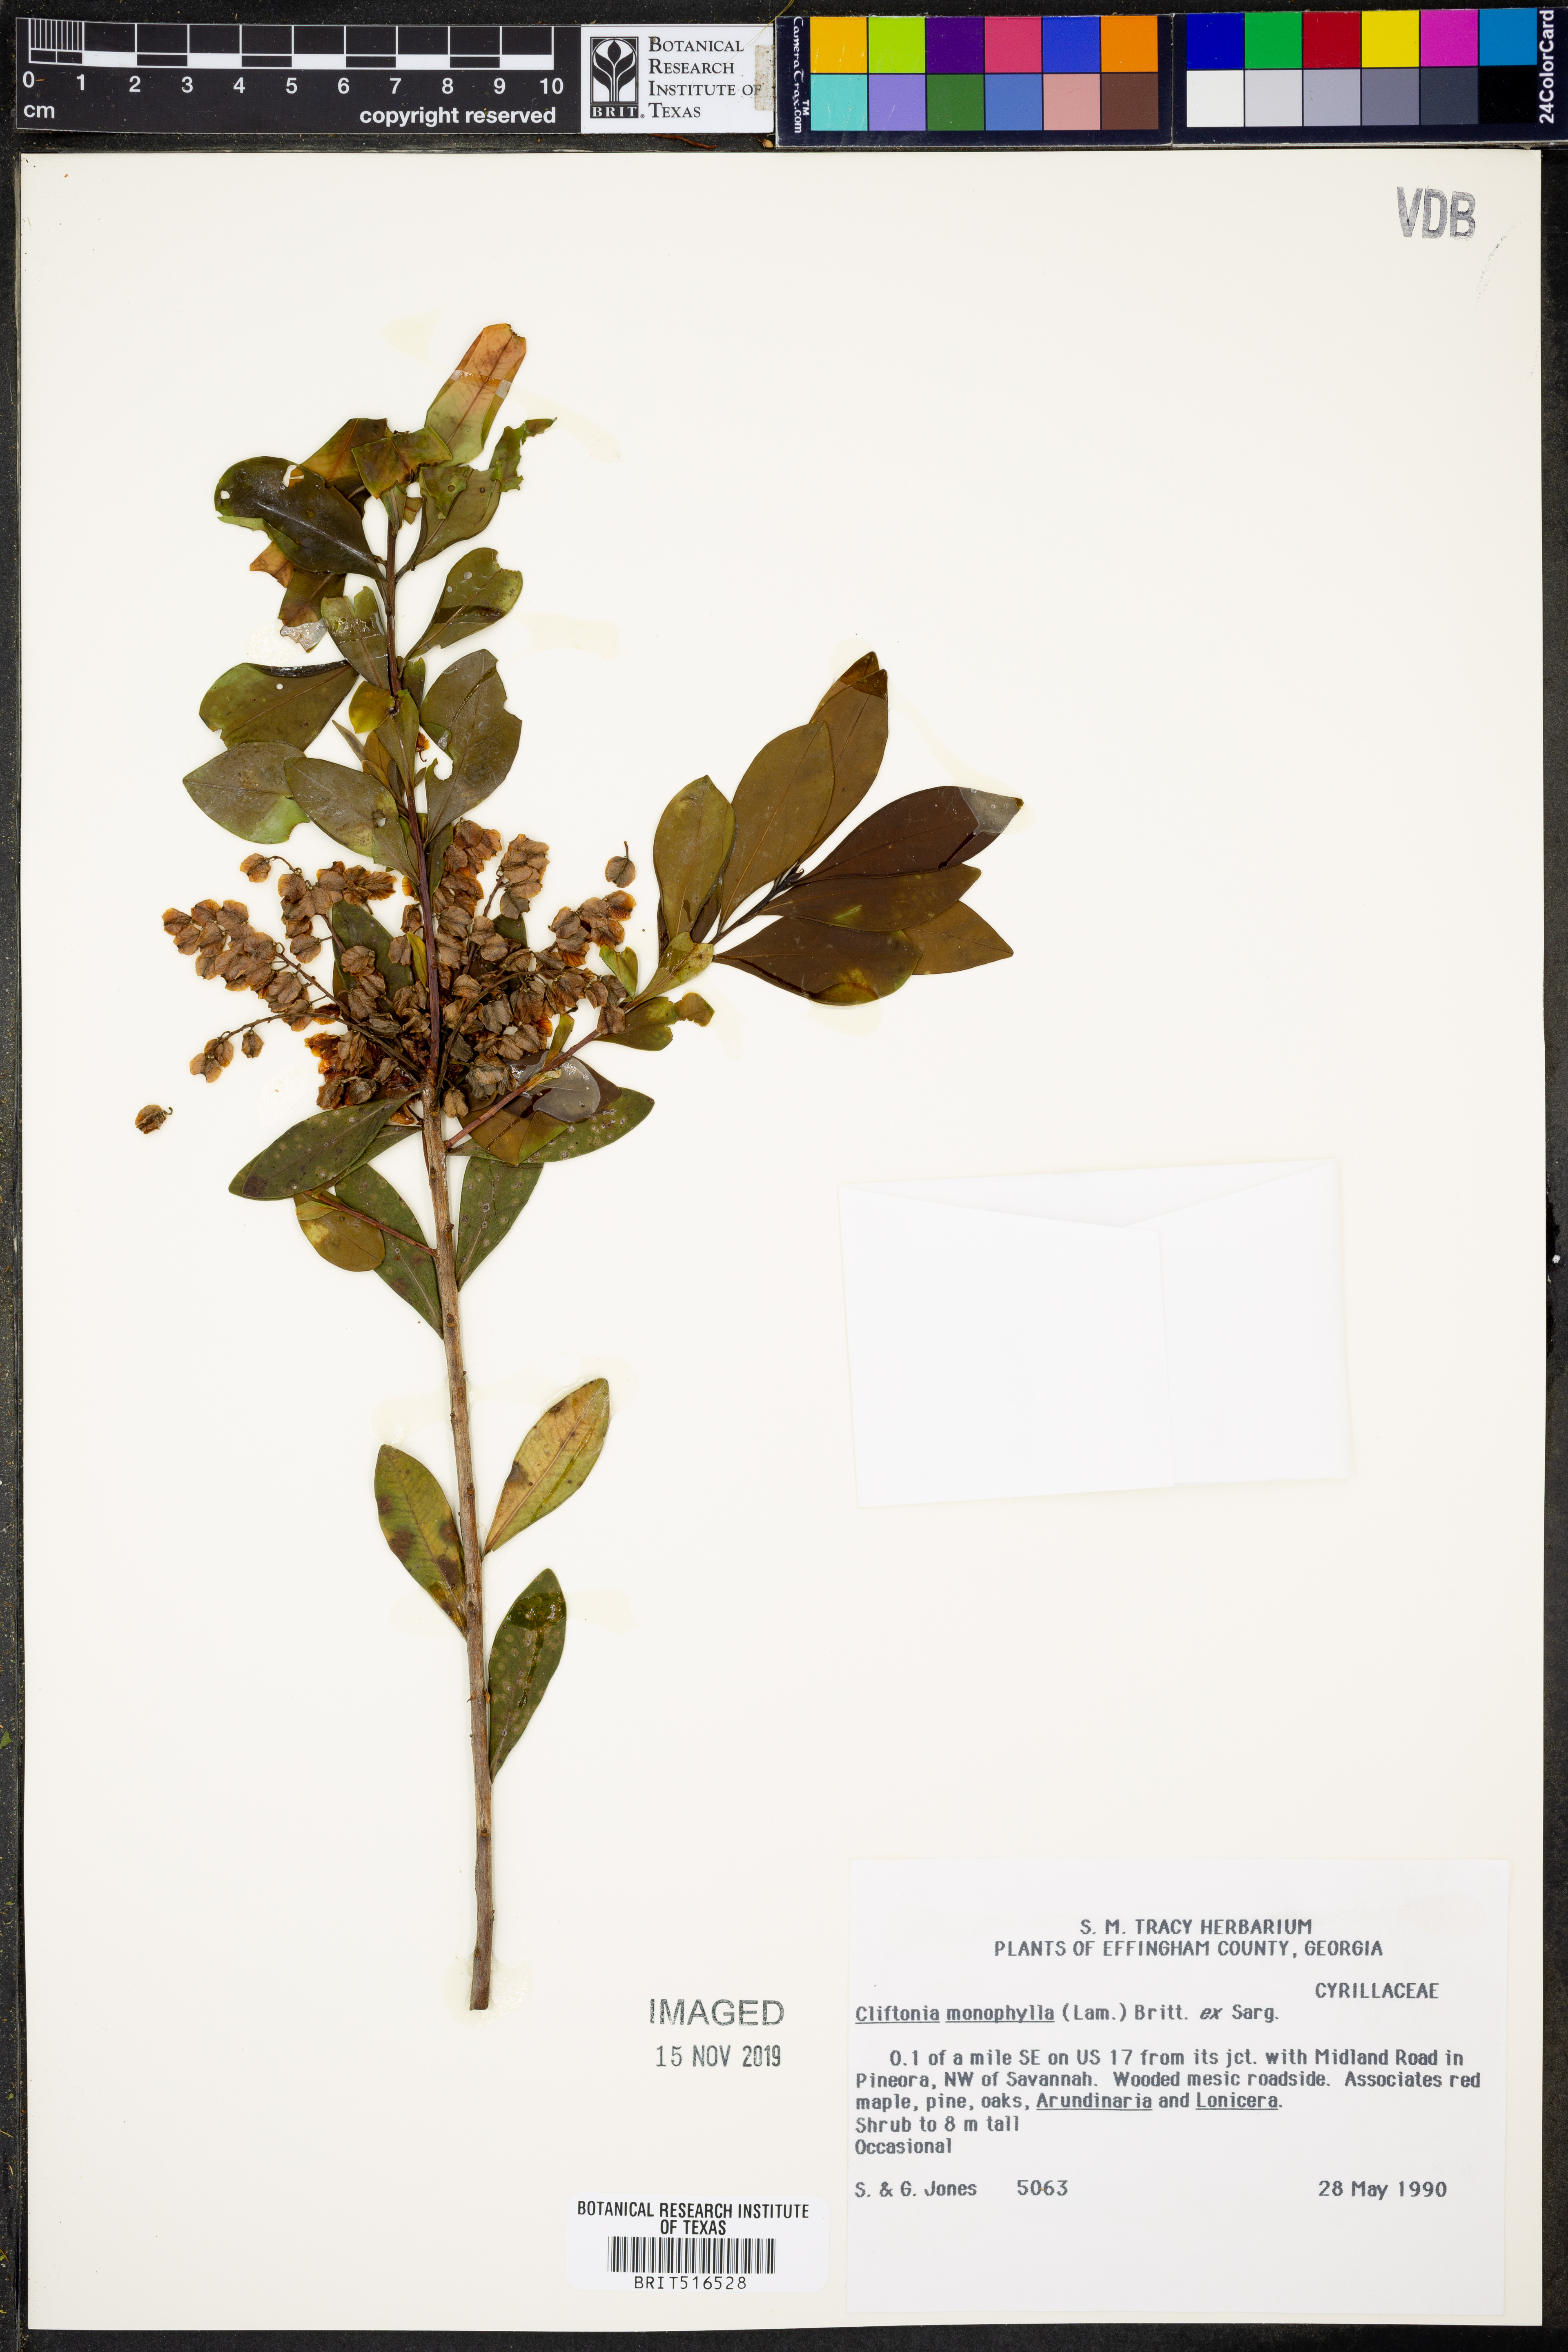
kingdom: Plantae
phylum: Tracheophyta
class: Magnoliopsida
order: Ericales
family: Cyrillaceae
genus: Cliftonia
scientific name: Cliftonia monophylla
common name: Titi
